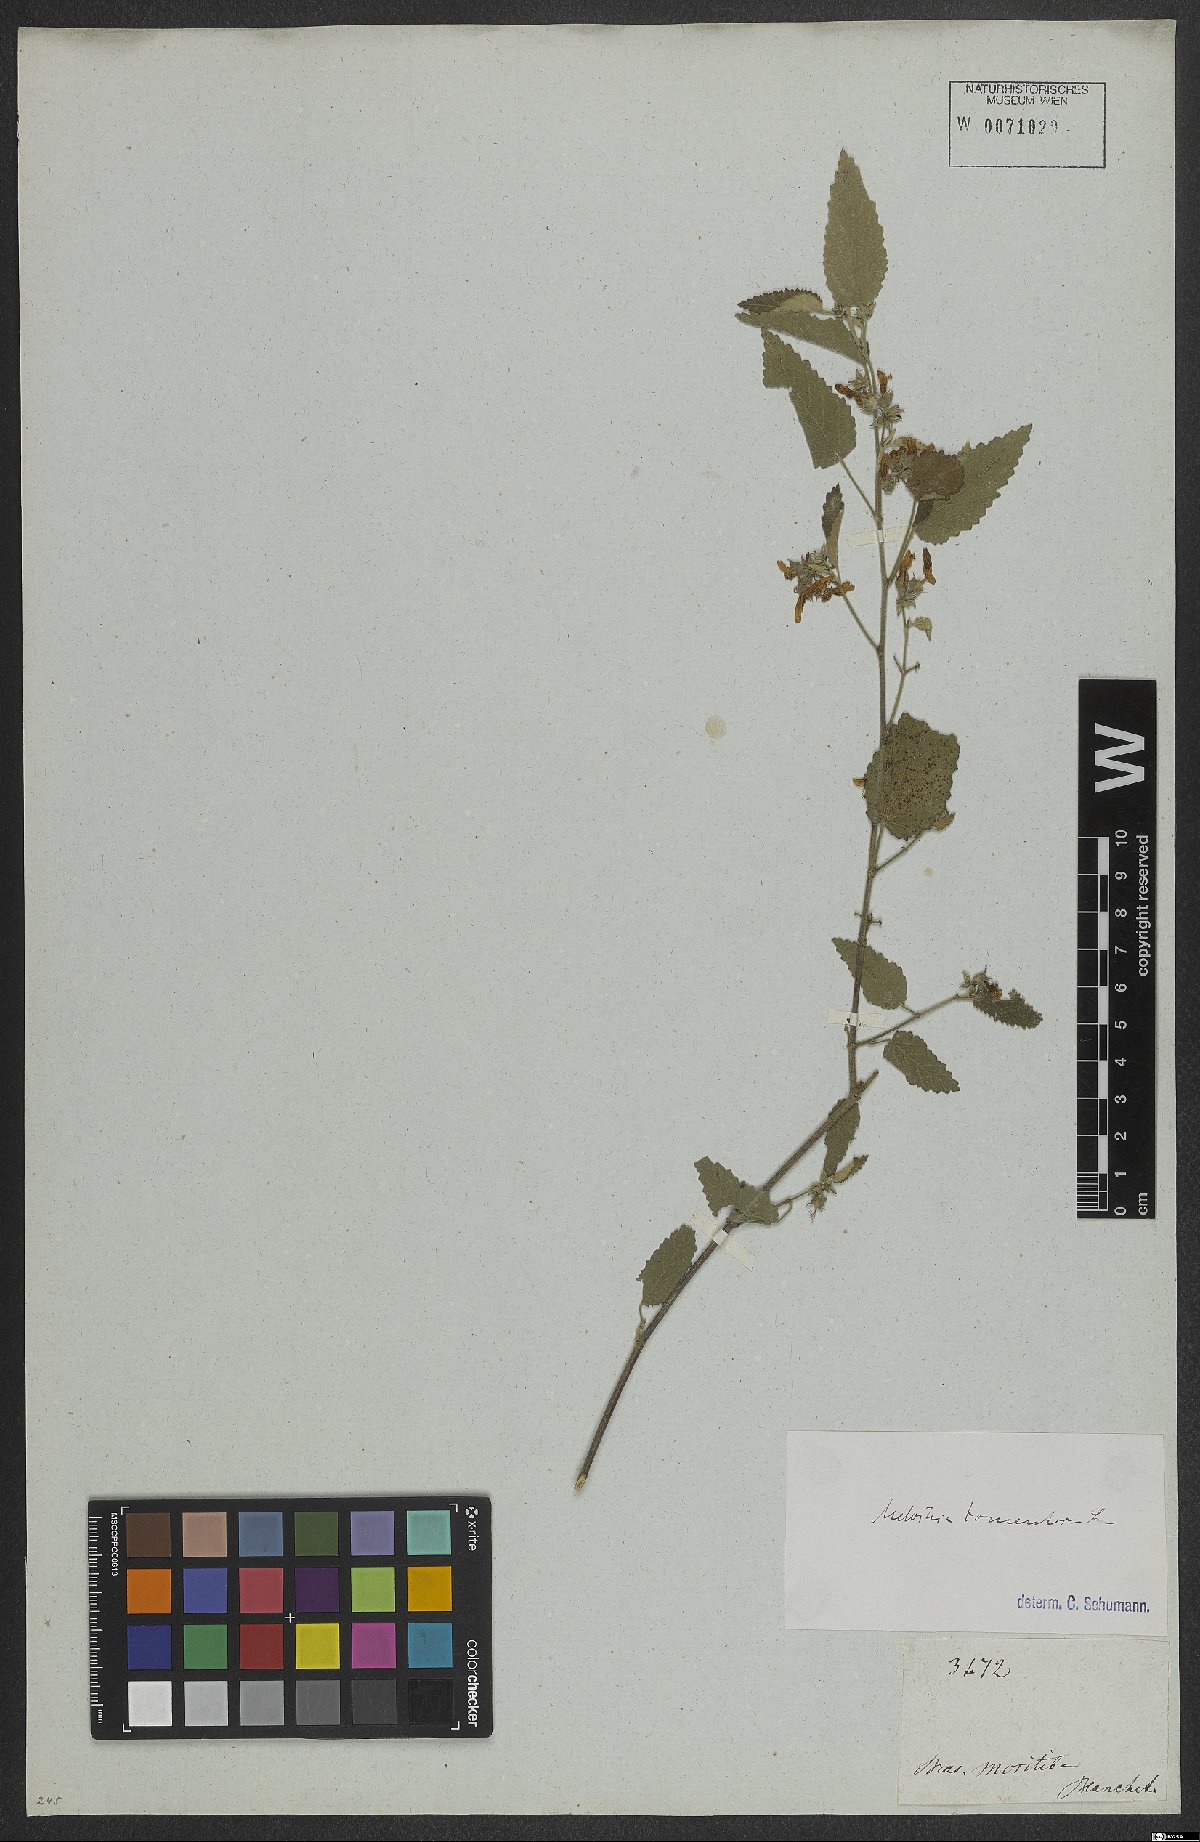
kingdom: Plantae
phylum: Tracheophyta
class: Magnoliopsida
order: Malvales
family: Malvaceae
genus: Melochia
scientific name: Melochia caracasana
